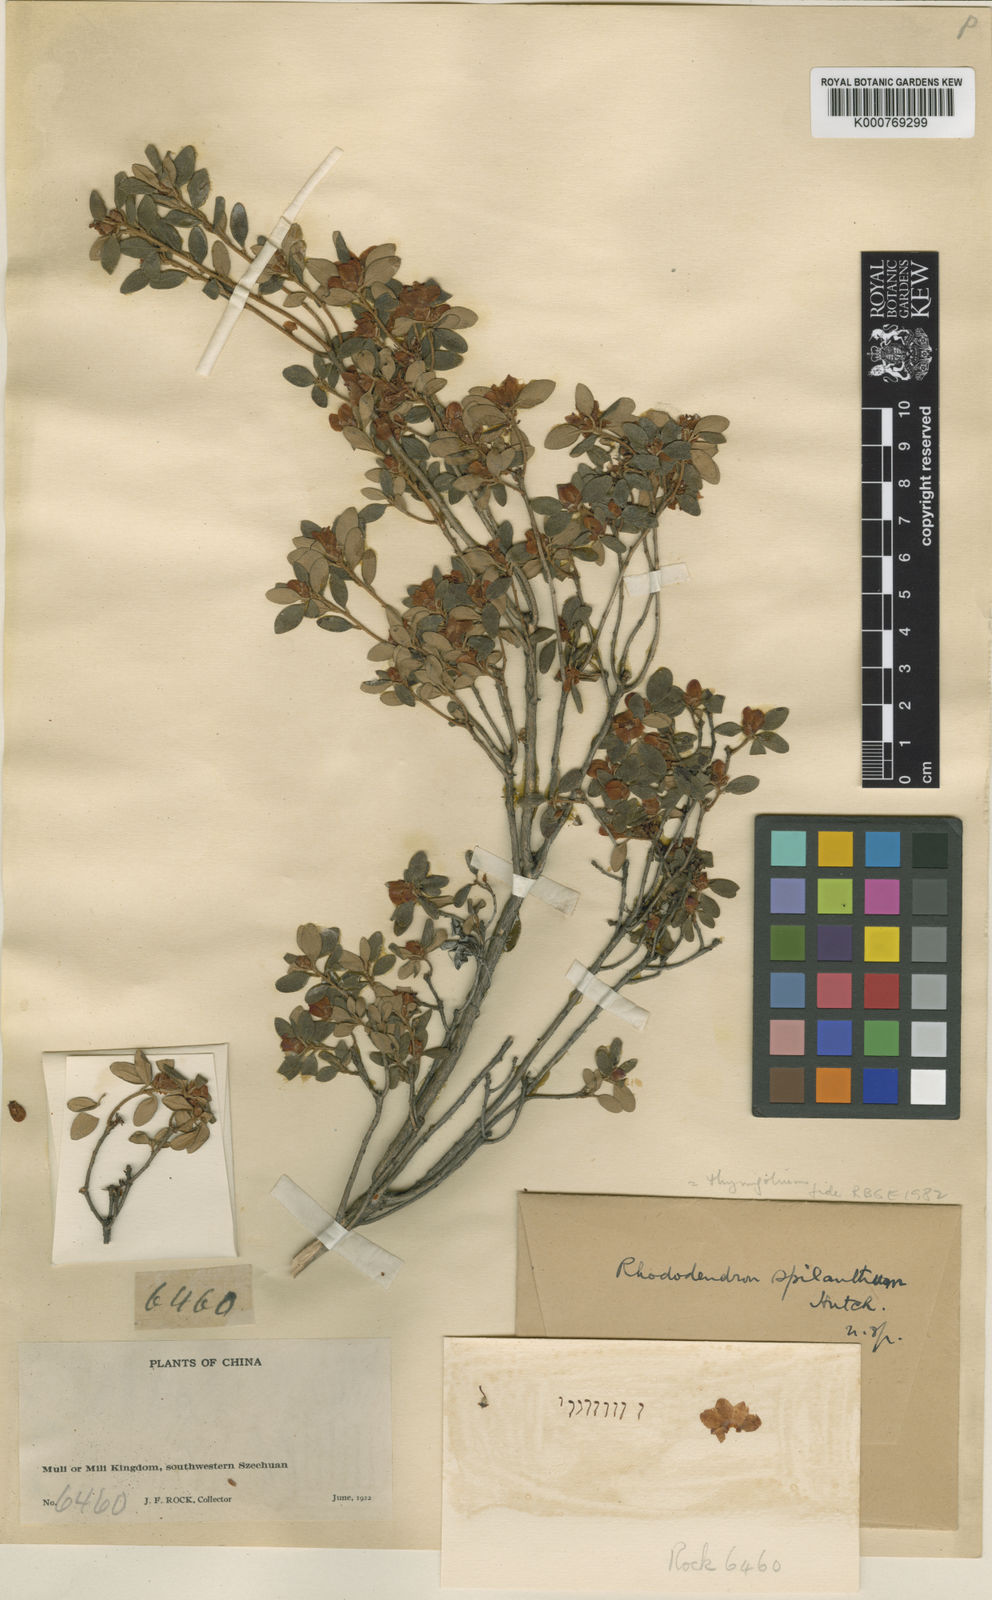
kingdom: Plantae
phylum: Tracheophyta
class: Magnoliopsida
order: Ericales
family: Ericaceae
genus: Rhododendron
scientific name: Rhododendron thymifolium
